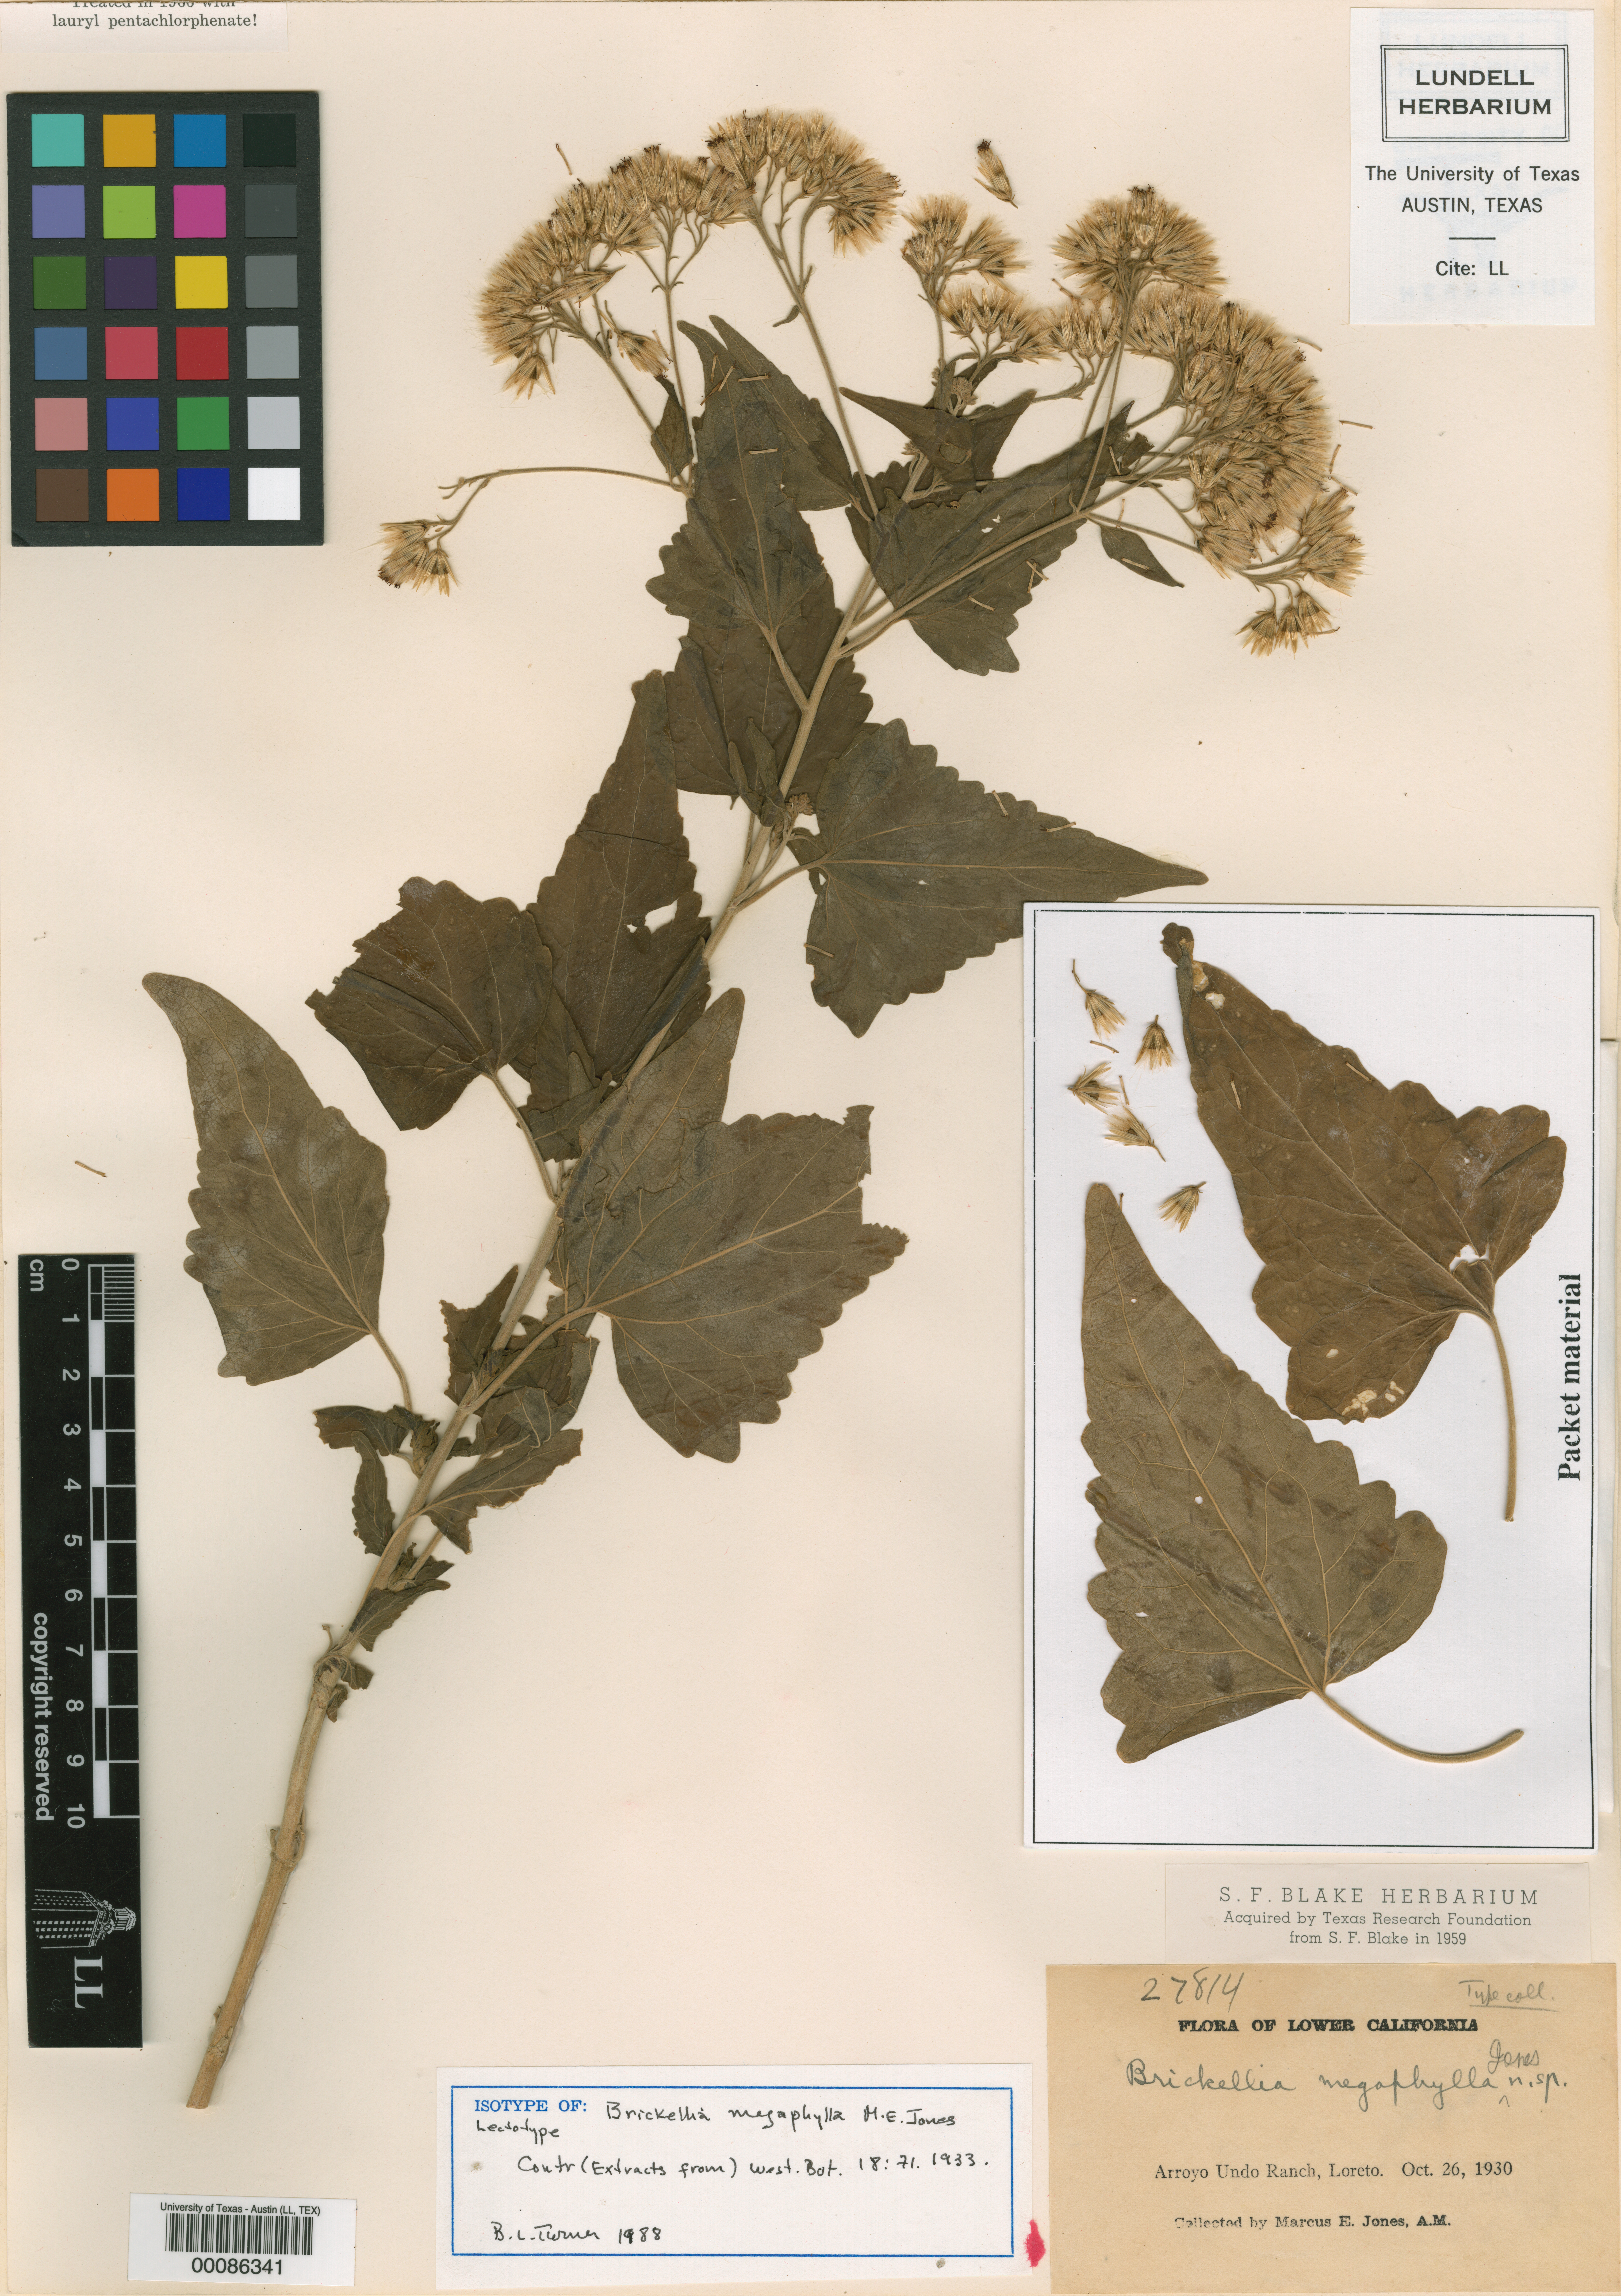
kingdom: Plantae
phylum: Tracheophyta
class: Magnoliopsida
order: Asterales
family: Asteraceae
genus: Brickellia
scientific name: Brickellia megaphylla
